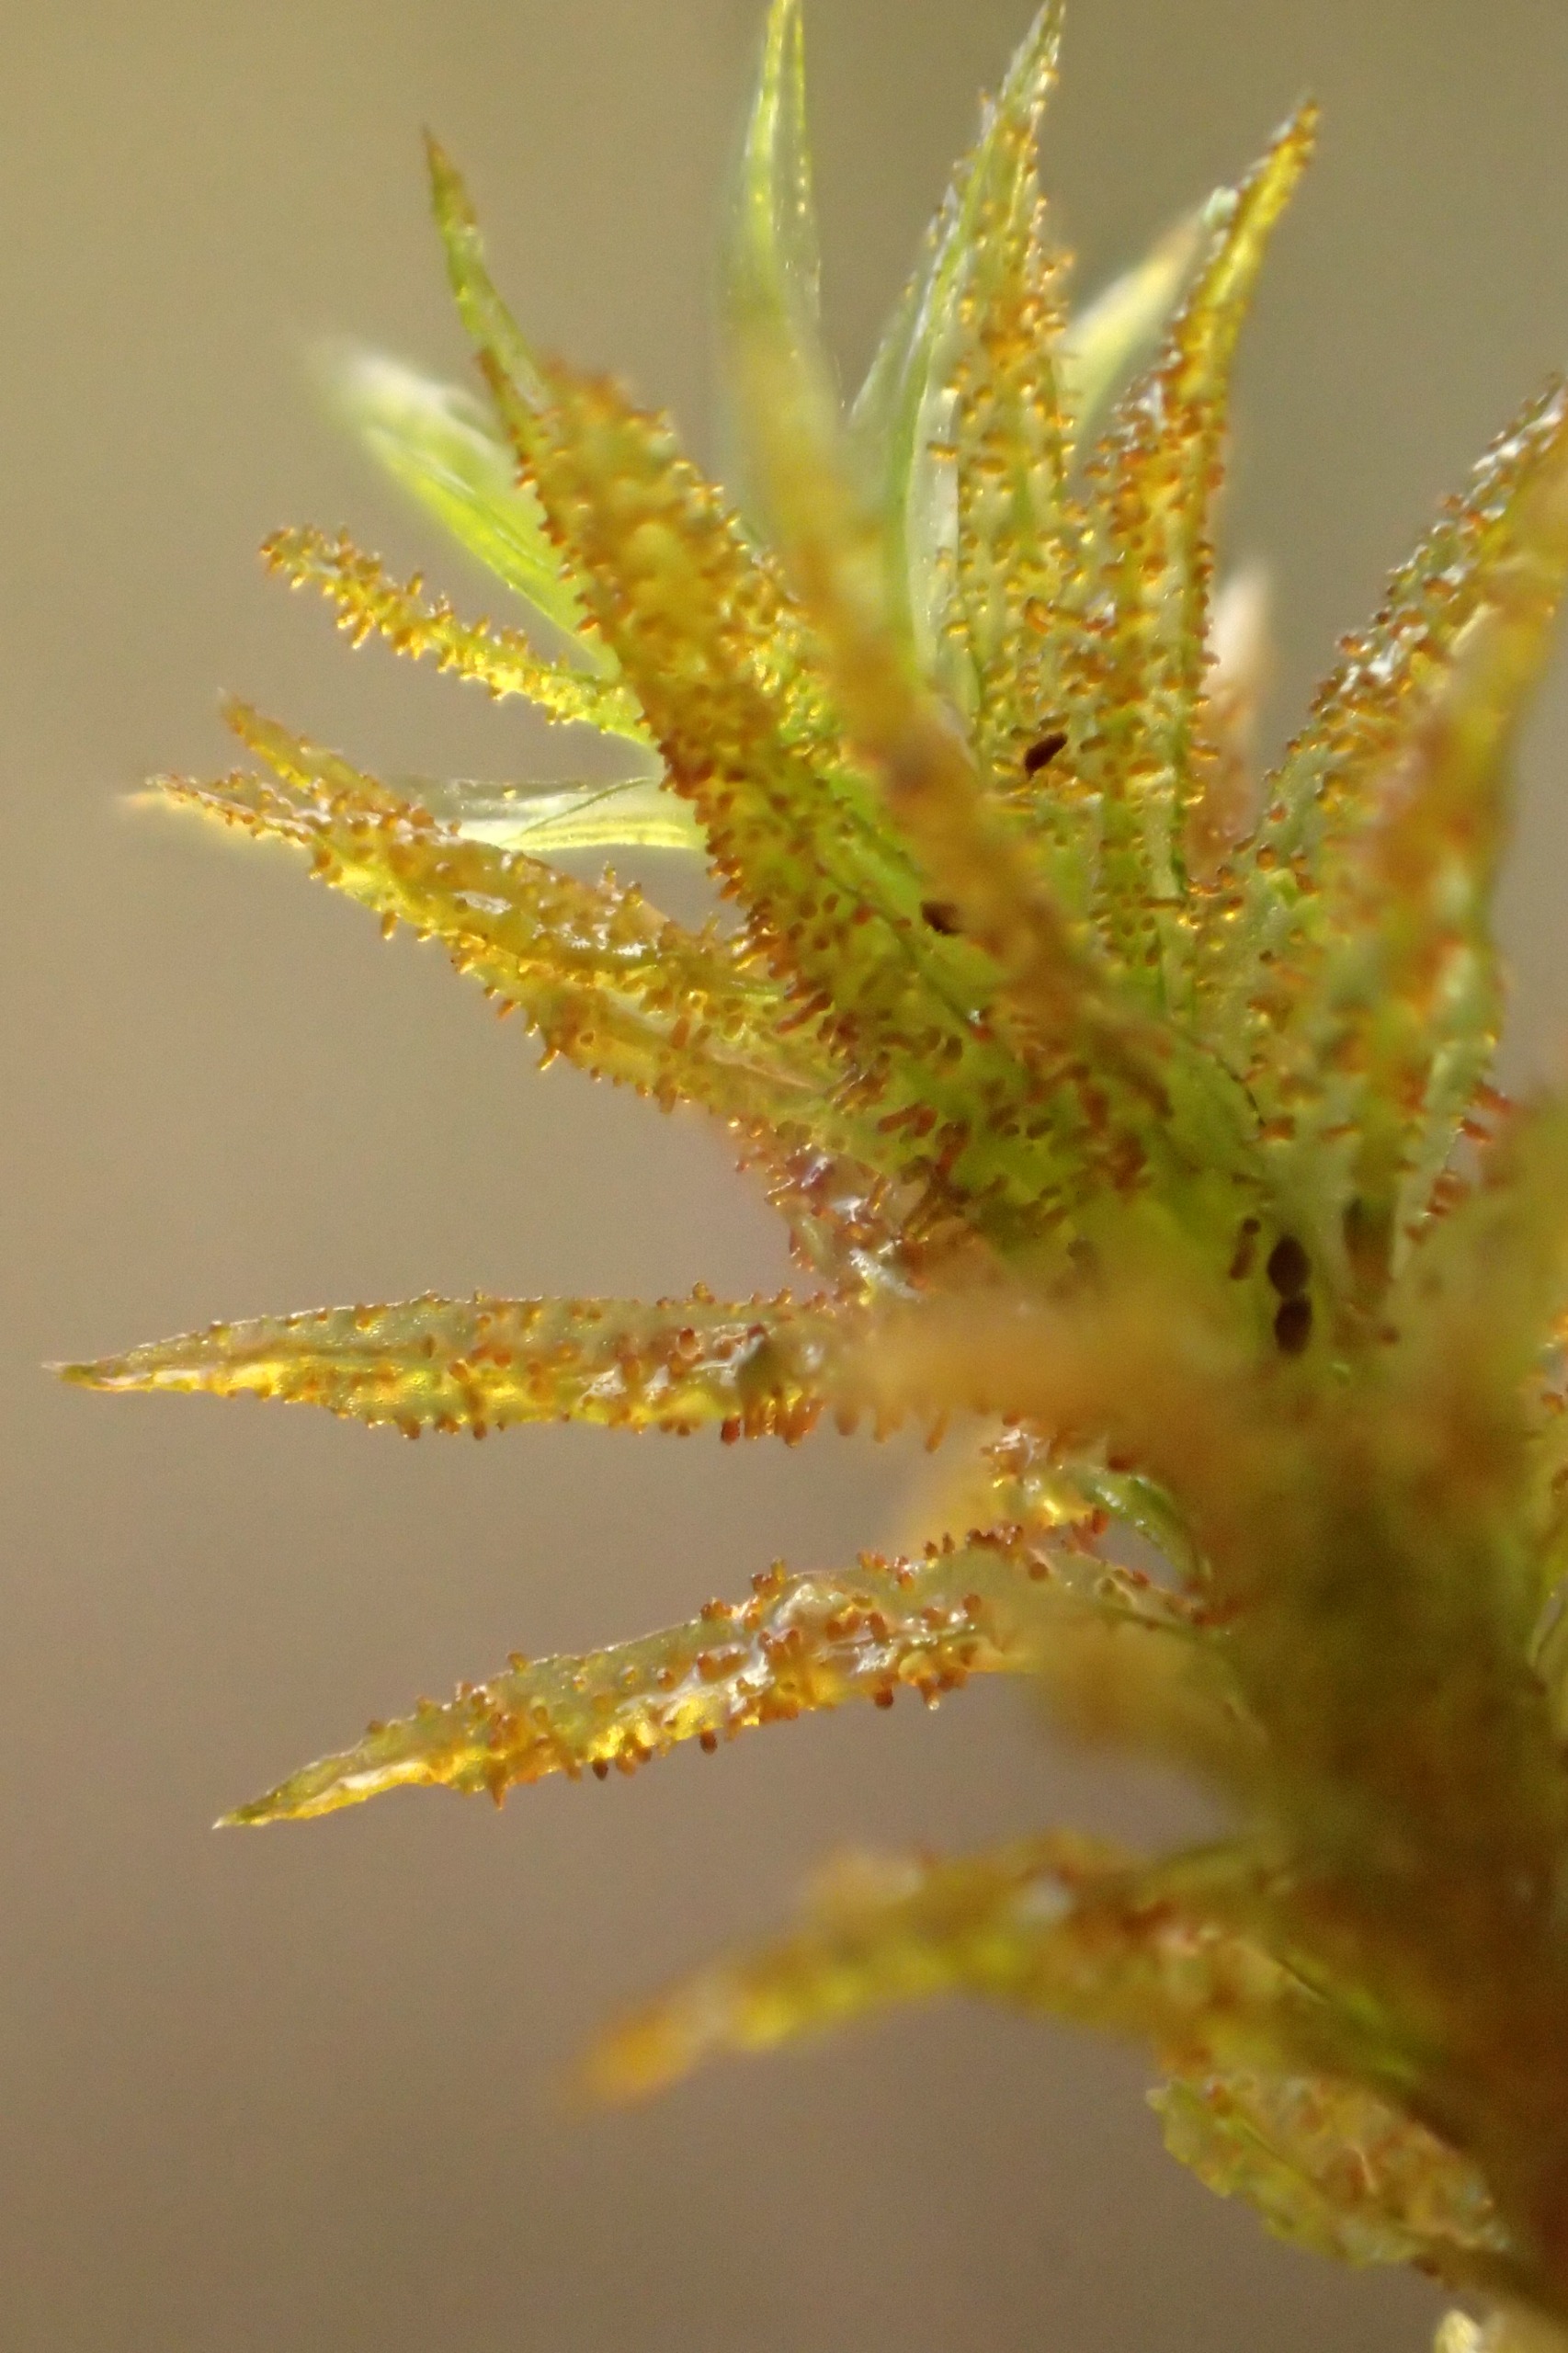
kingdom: Plantae
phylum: Bryophyta
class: Bryopsida
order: Orthotrichales
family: Orthotrichaceae
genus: Pulvigera
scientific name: Pulvigera lyellii
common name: Stor furehætte
